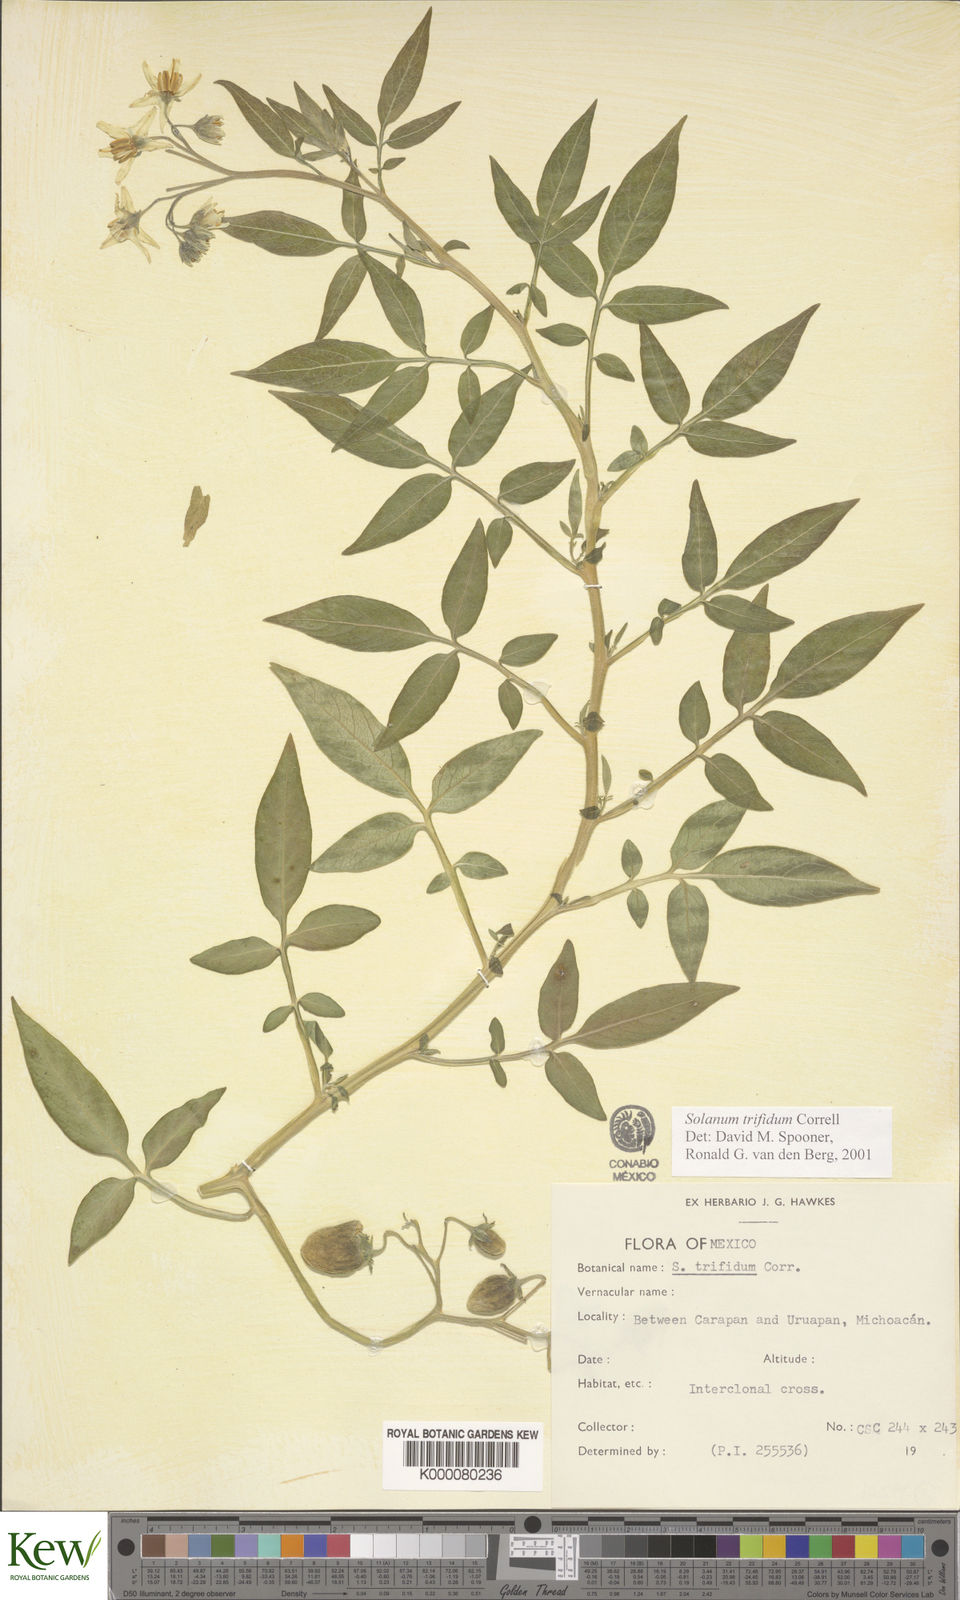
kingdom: Plantae
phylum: Tracheophyta
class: Magnoliopsida
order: Solanales
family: Solanaceae
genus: Solanum
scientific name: Solanum trifidum
